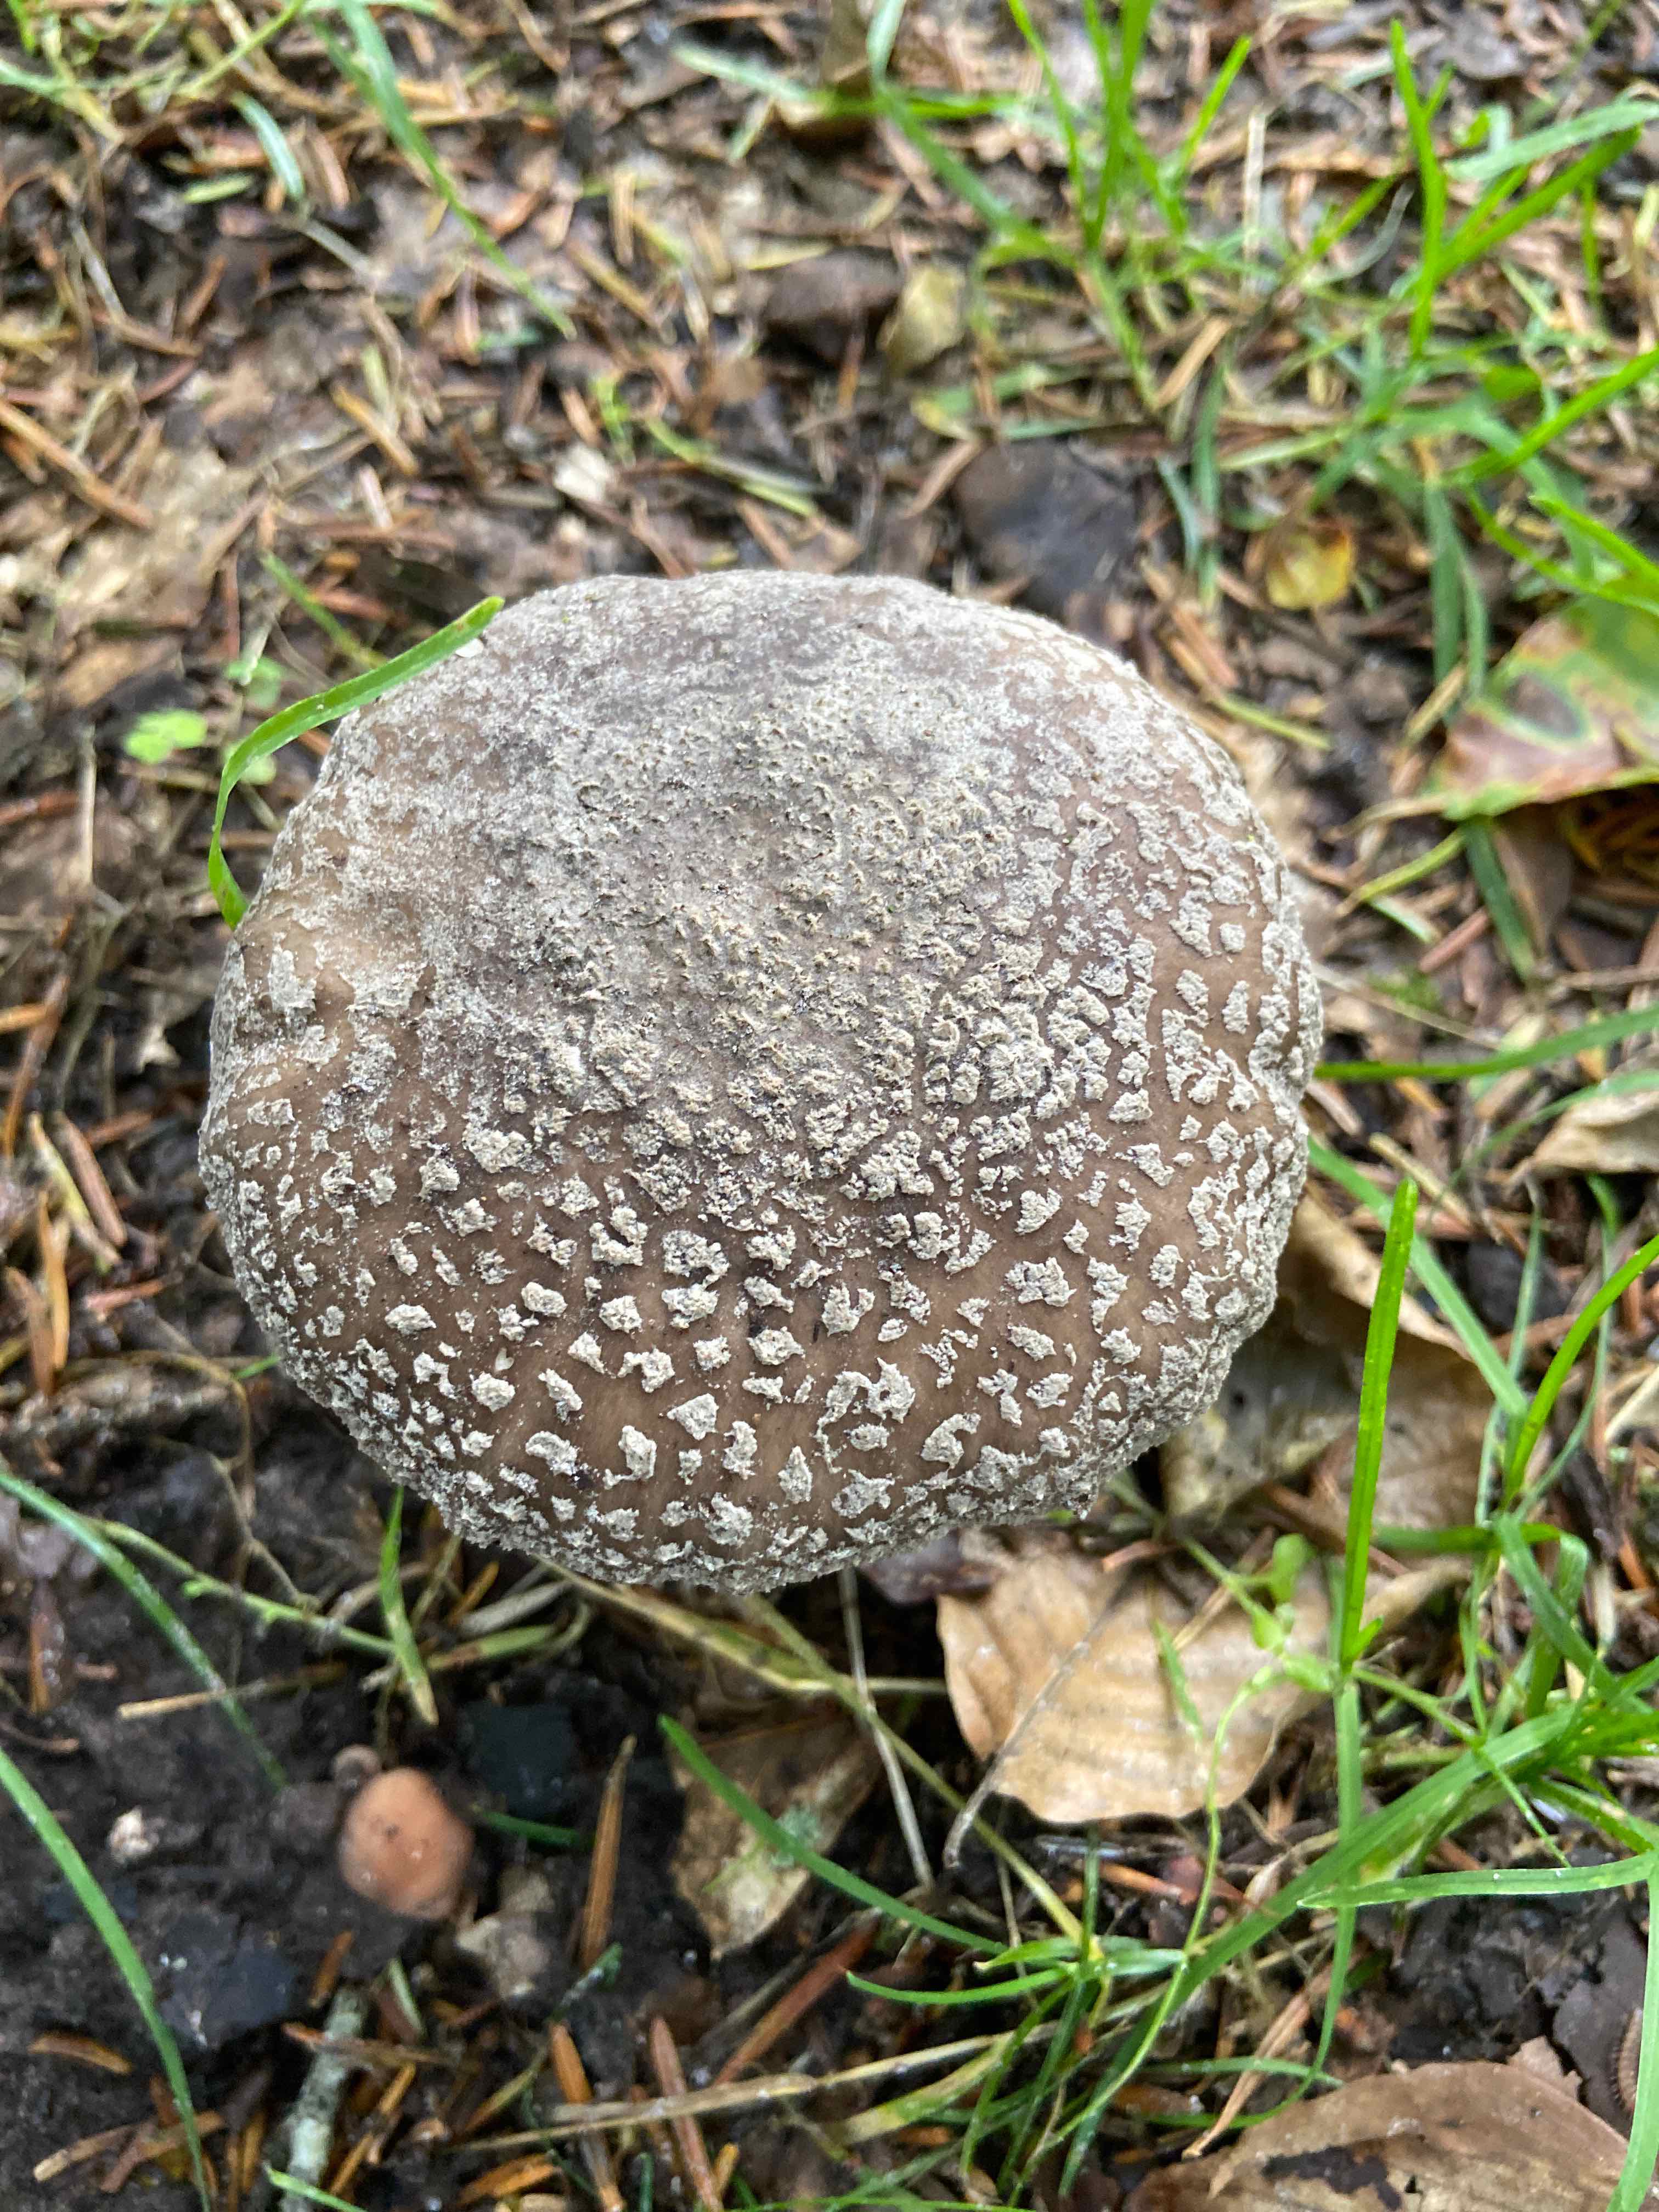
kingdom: Fungi
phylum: Basidiomycota
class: Agaricomycetes
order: Agaricales
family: Amanitaceae
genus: Amanita
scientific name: Amanita
